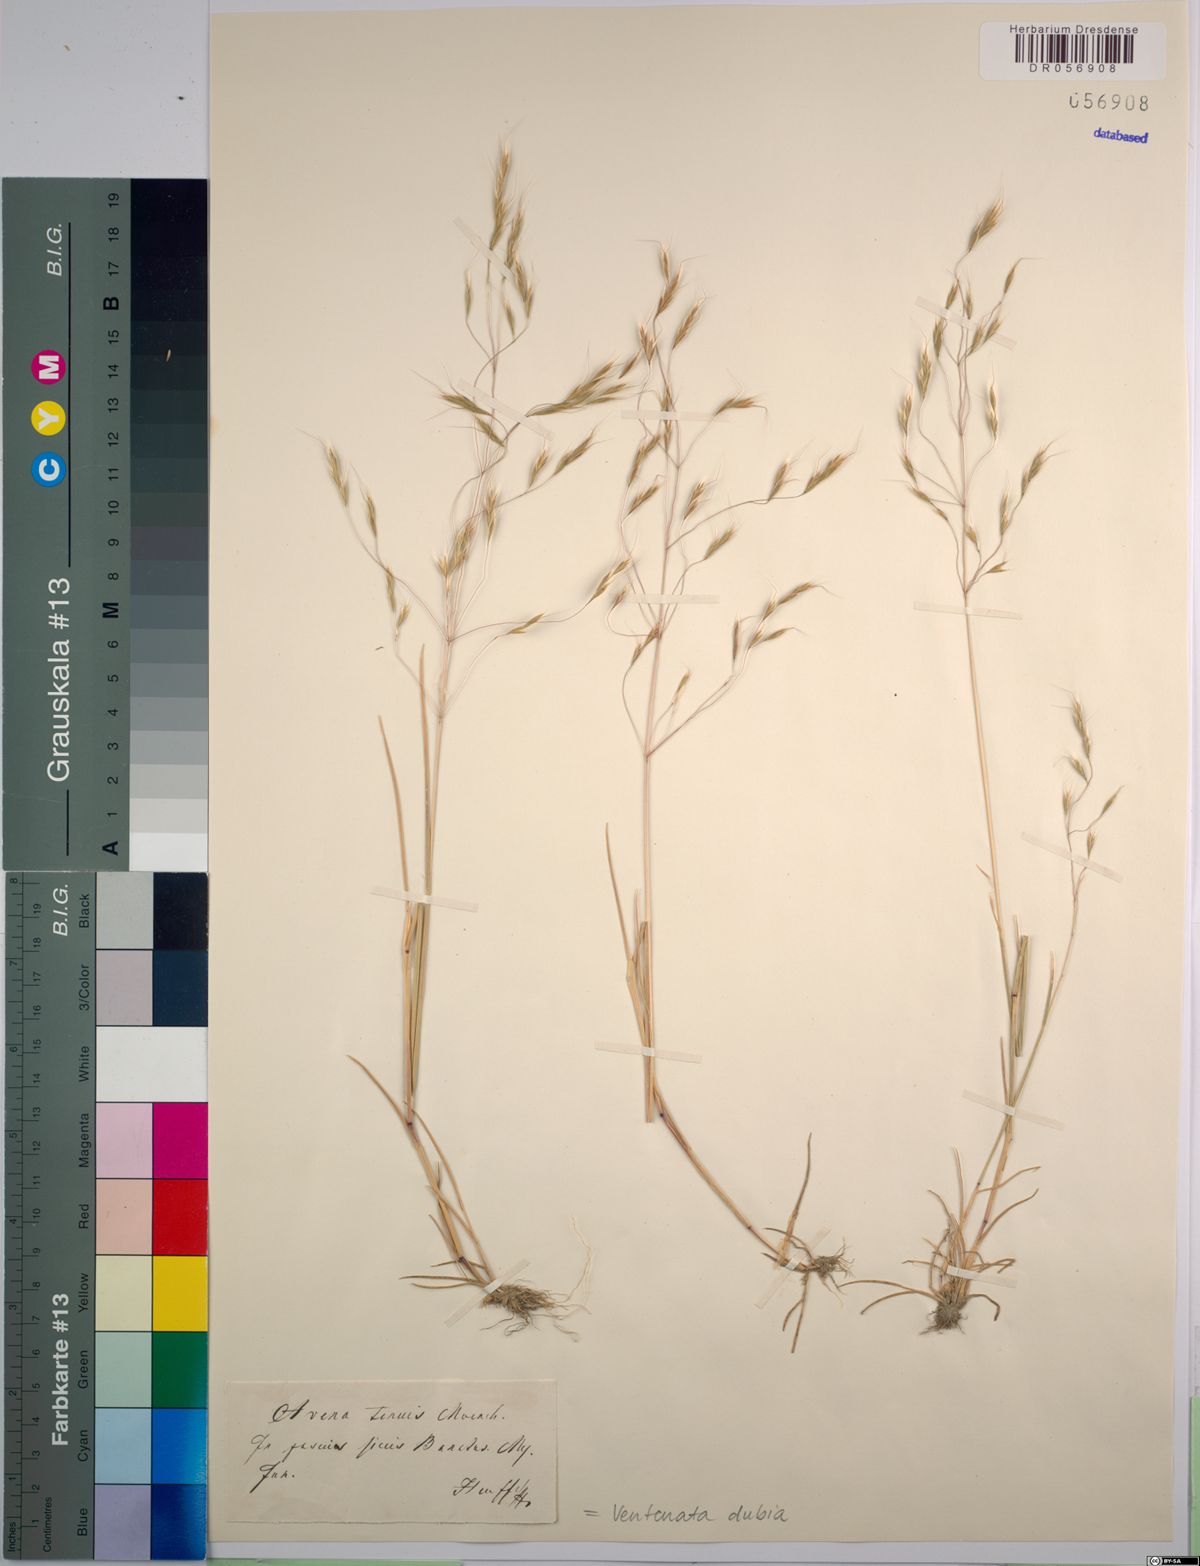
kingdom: Plantae
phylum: Tracheophyta
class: Liliopsida
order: Poales
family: Poaceae
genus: Ventenata
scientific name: Ventenata dubia
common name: North africa grass
